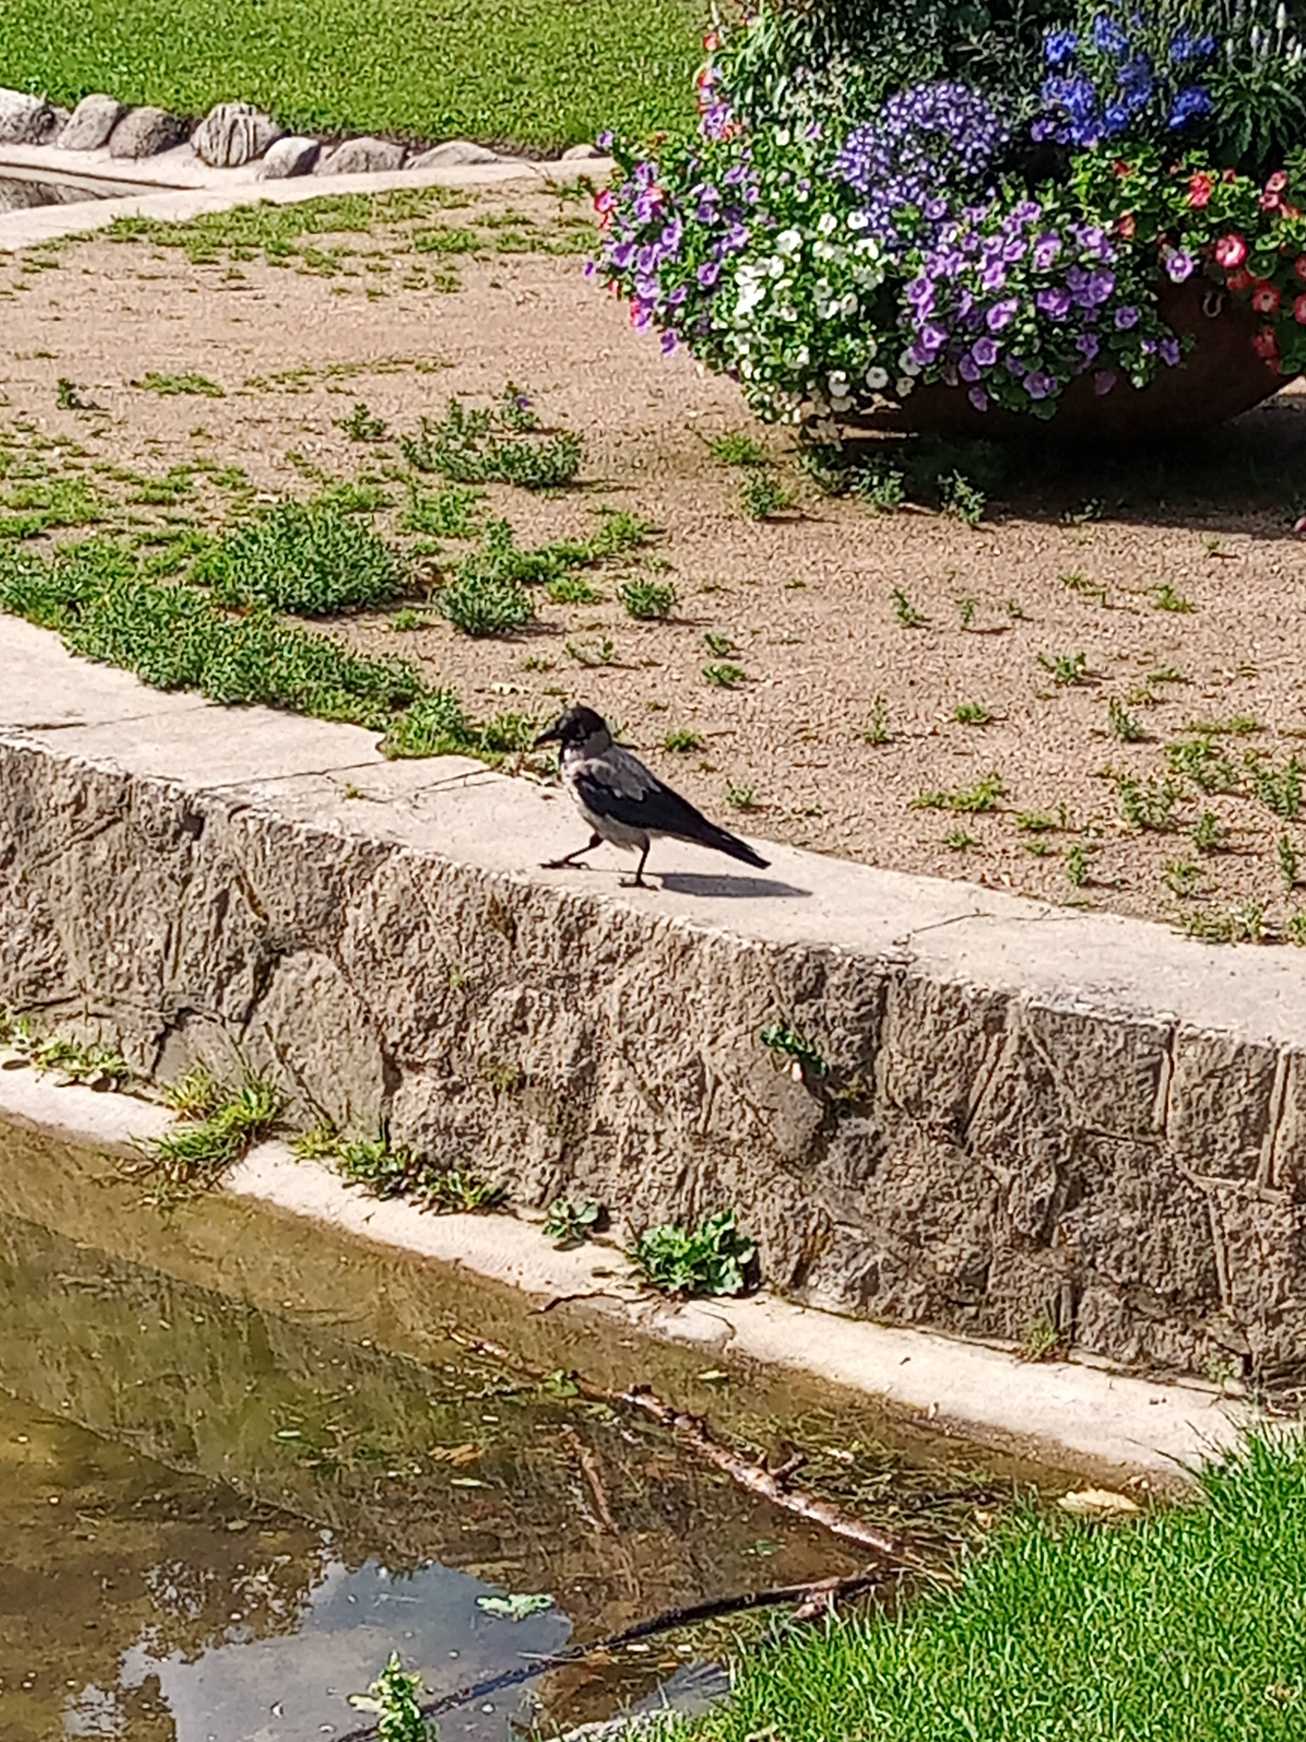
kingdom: Animalia
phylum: Chordata
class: Aves
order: Passeriformes
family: Corvidae
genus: Corvus
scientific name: Corvus cornix
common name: Gråkrage
